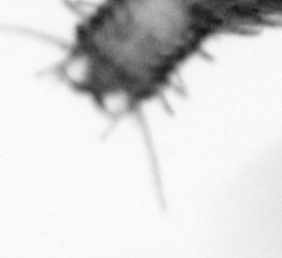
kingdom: Animalia
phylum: Annelida
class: Polychaeta
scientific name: Polychaeta
